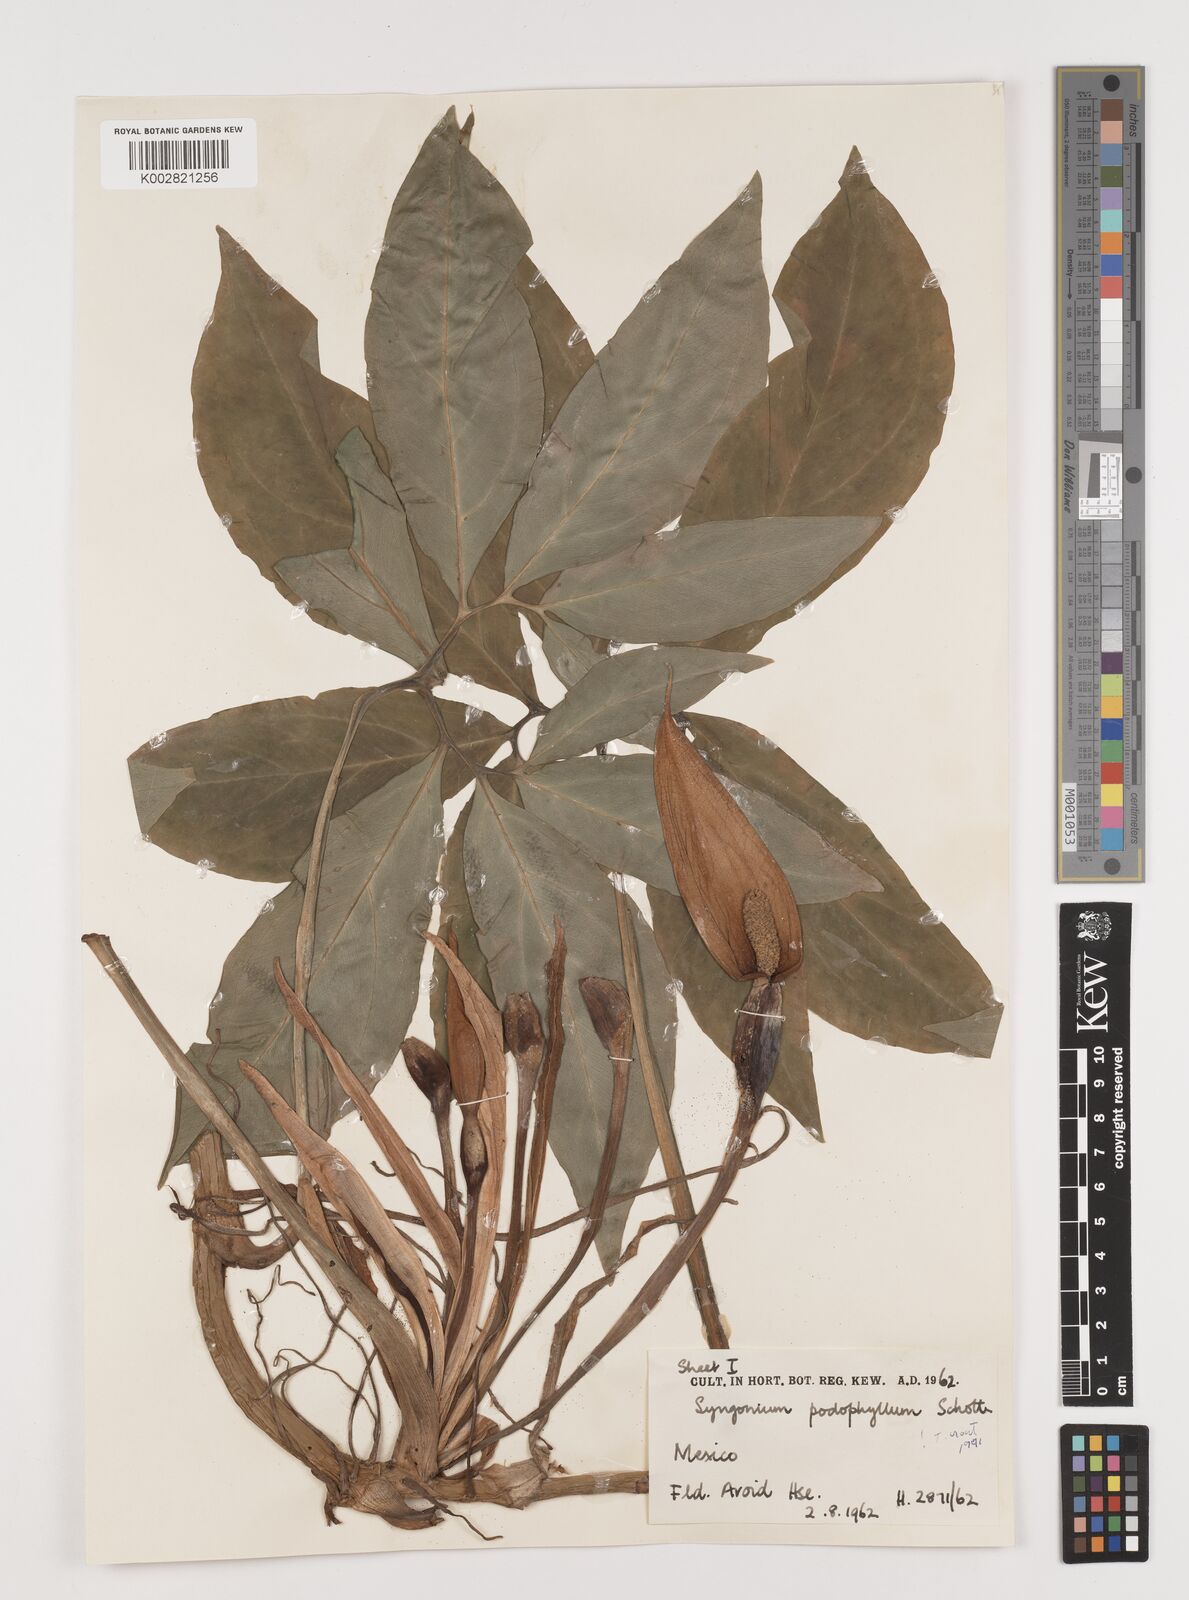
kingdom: Plantae
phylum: Tracheophyta
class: Liliopsida
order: Alismatales
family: Araceae
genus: Syngonium
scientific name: Syngonium podophyllum
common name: American evergreen
